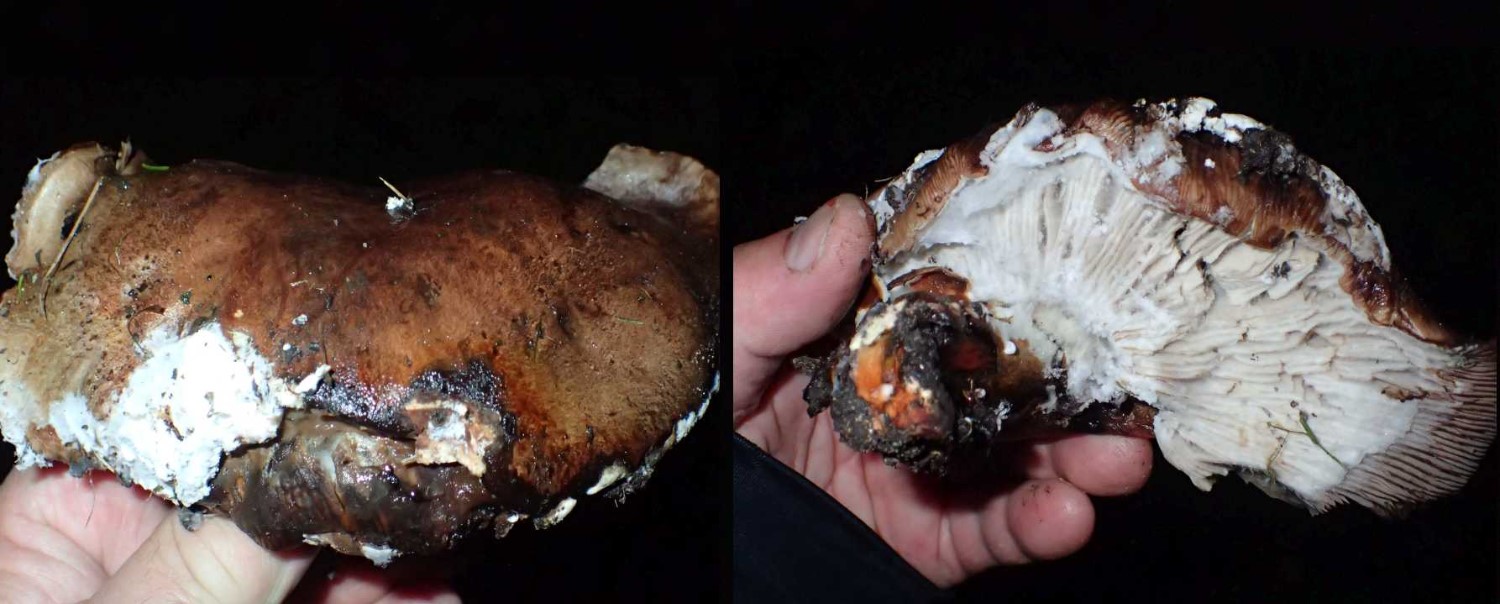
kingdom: Fungi
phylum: Basidiomycota
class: Agaricomycetes
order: Agaricales
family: Tricholomataceae
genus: Tricholoma
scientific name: Tricholoma populinum
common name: poppel-ridderhat
